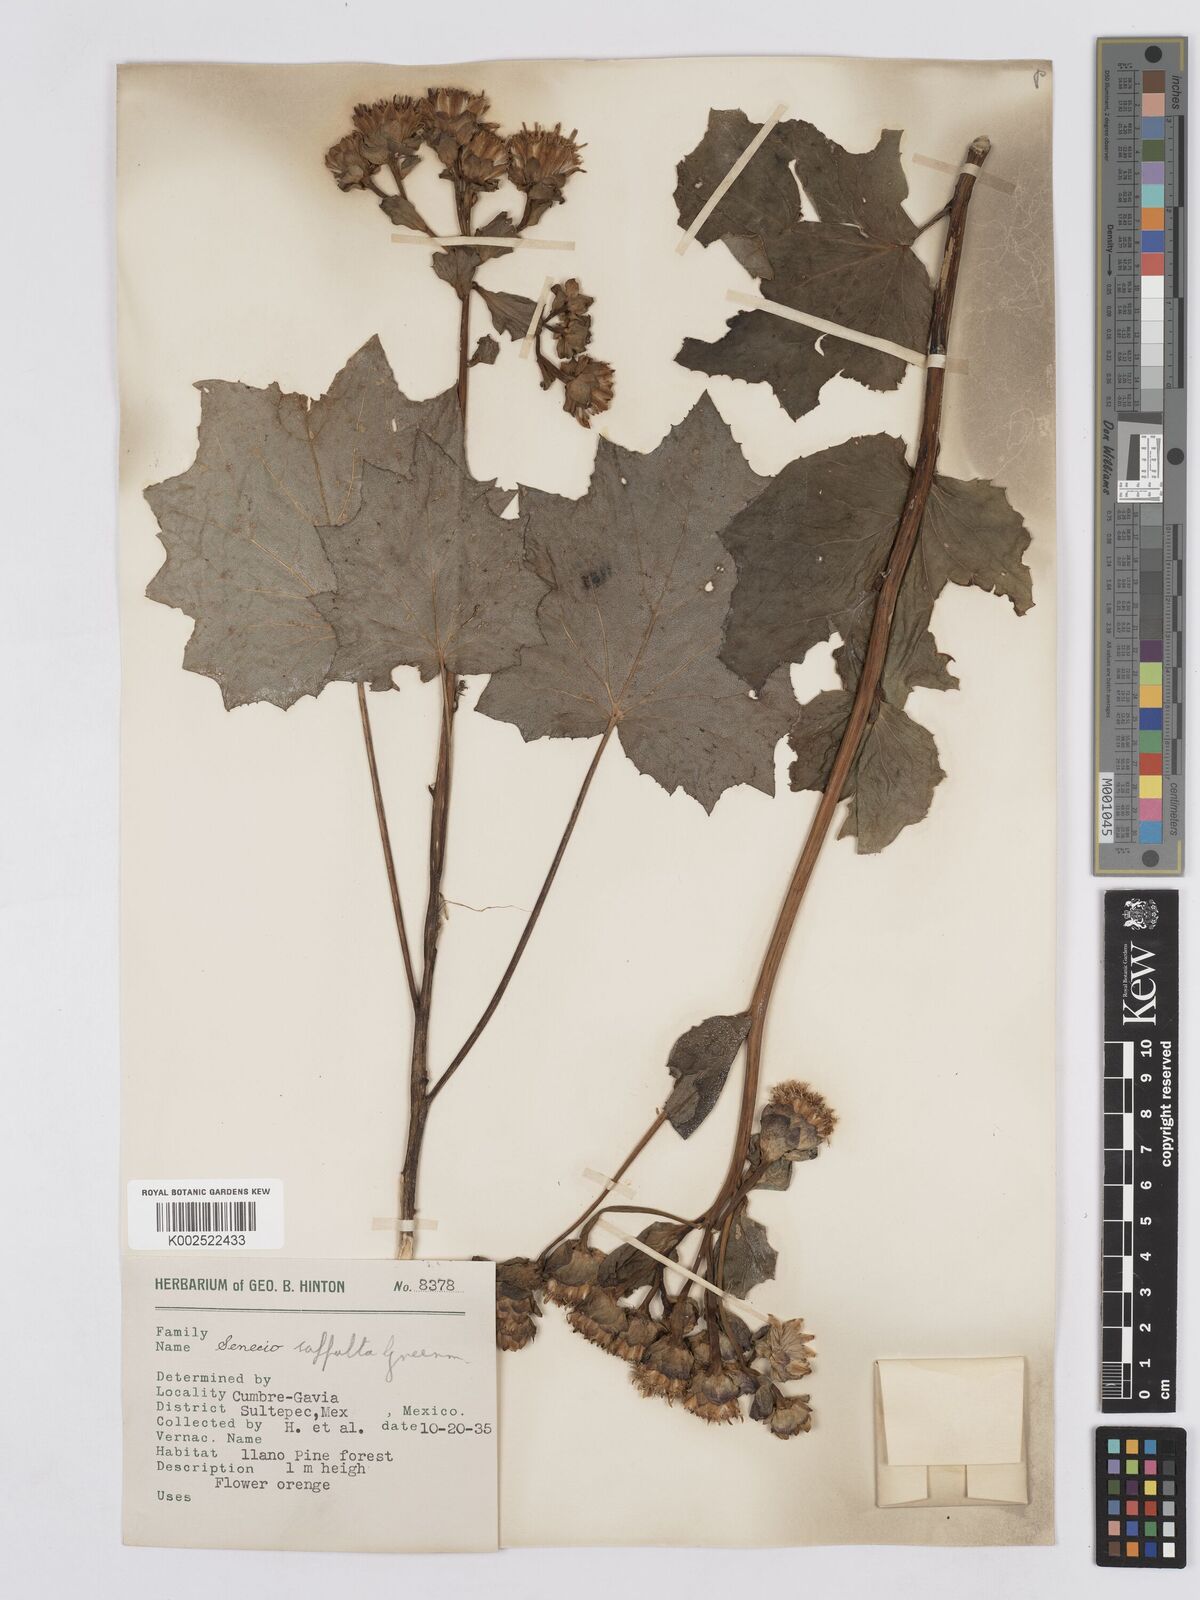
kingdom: Plantae
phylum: Tracheophyta
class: Magnoliopsida
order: Asterales
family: Asteraceae
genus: Roldana
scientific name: Roldana suffulta
